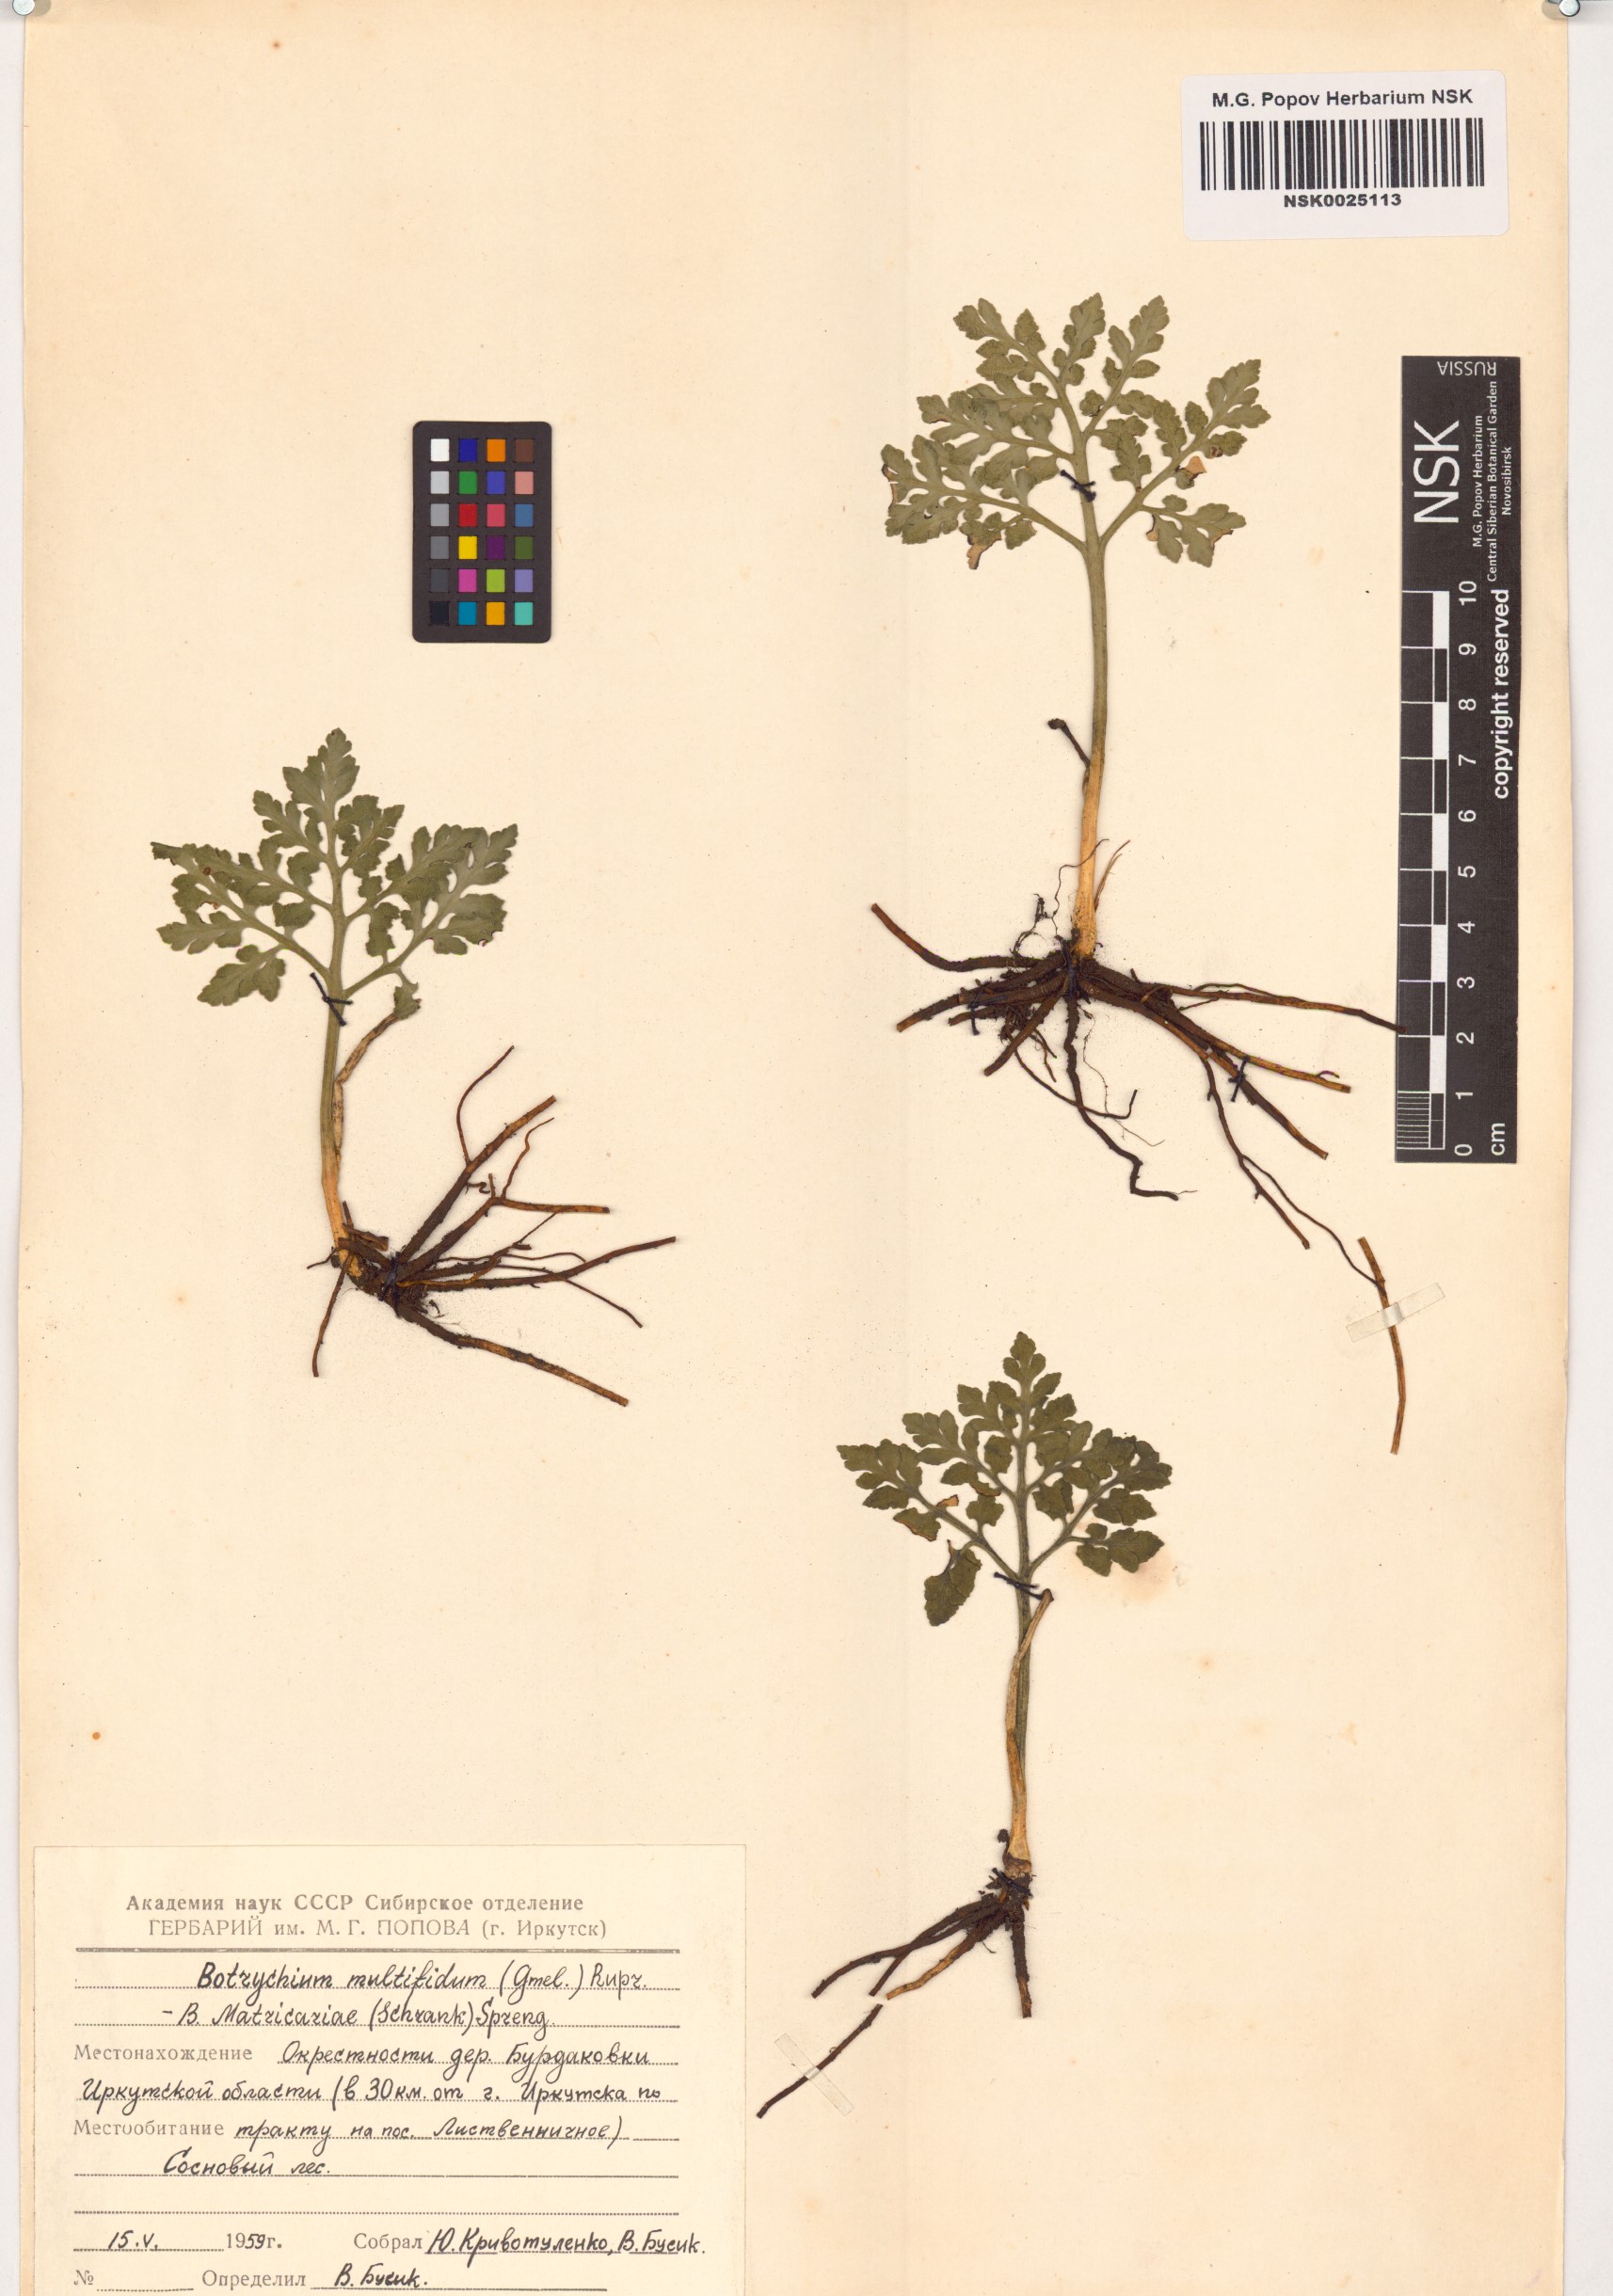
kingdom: Plantae
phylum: Tracheophyta
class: Polypodiopsida
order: Ophioglossales
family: Ophioglossaceae
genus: Sceptridium
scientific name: Sceptridium multifidum
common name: Leathery grape fern
